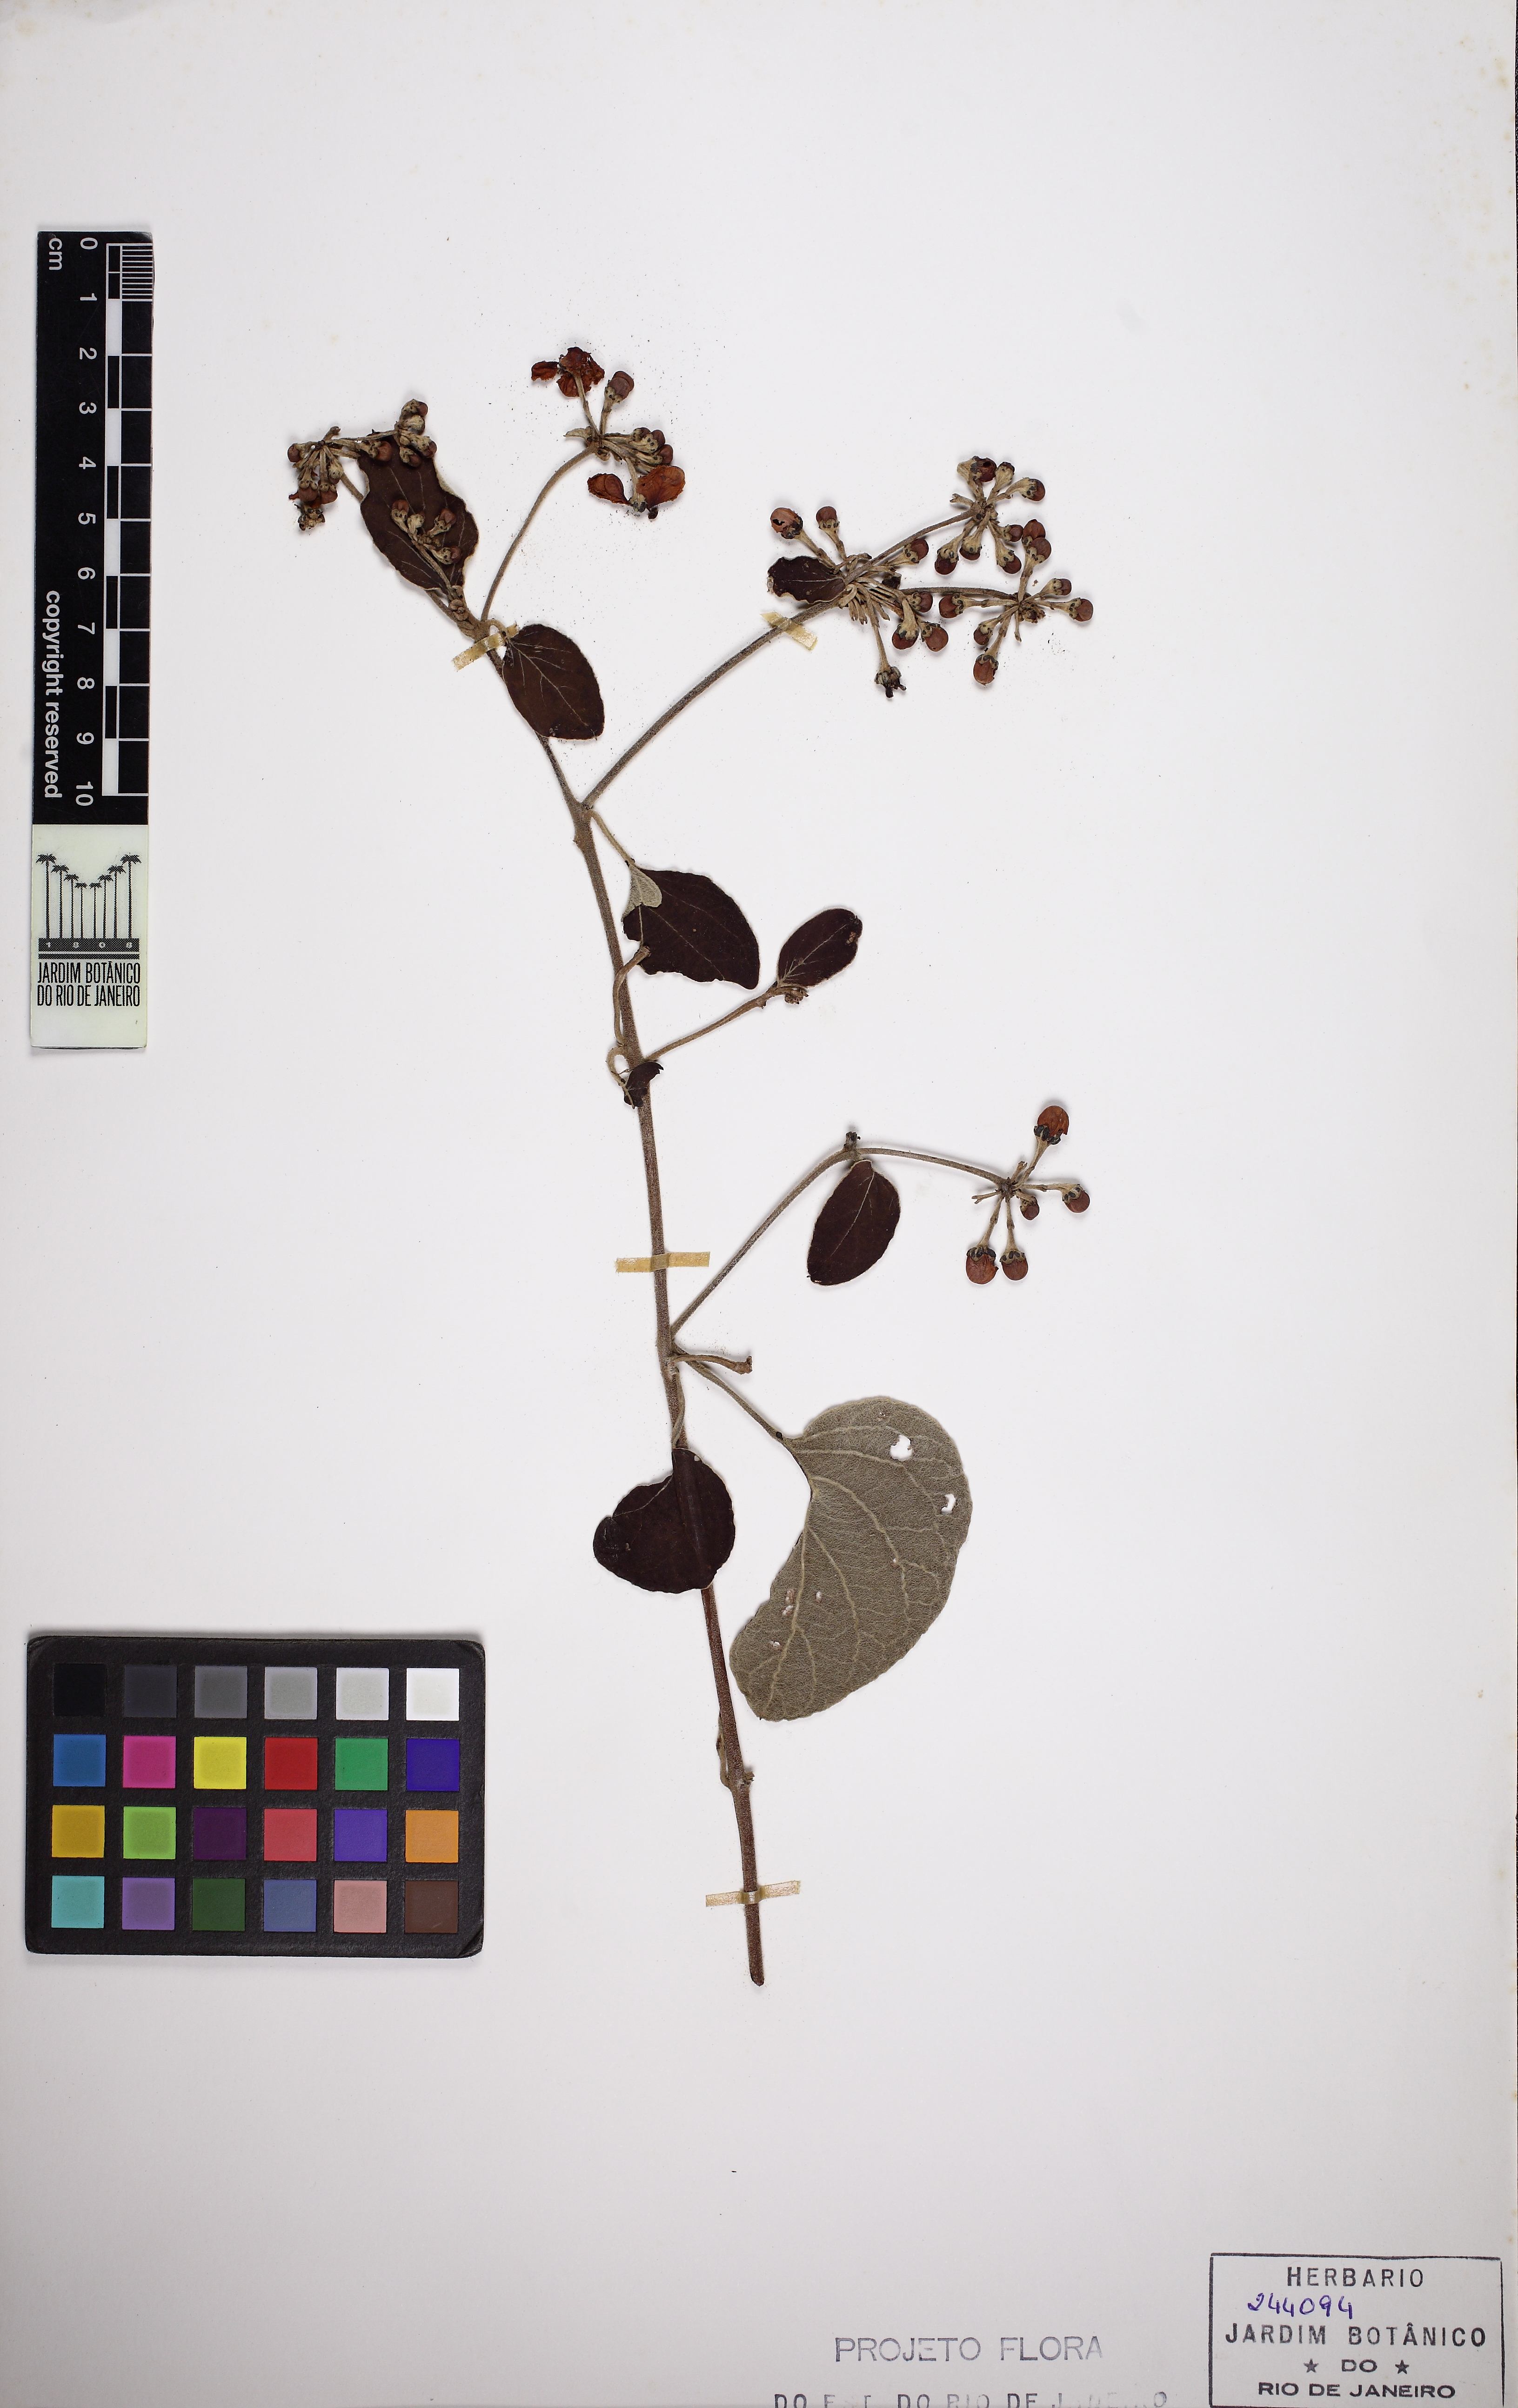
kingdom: Plantae
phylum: Tracheophyta
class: Magnoliopsida
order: Malpighiales
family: Malpighiaceae
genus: Stigmaphyllon
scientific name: Stigmaphyllon tomentosum
